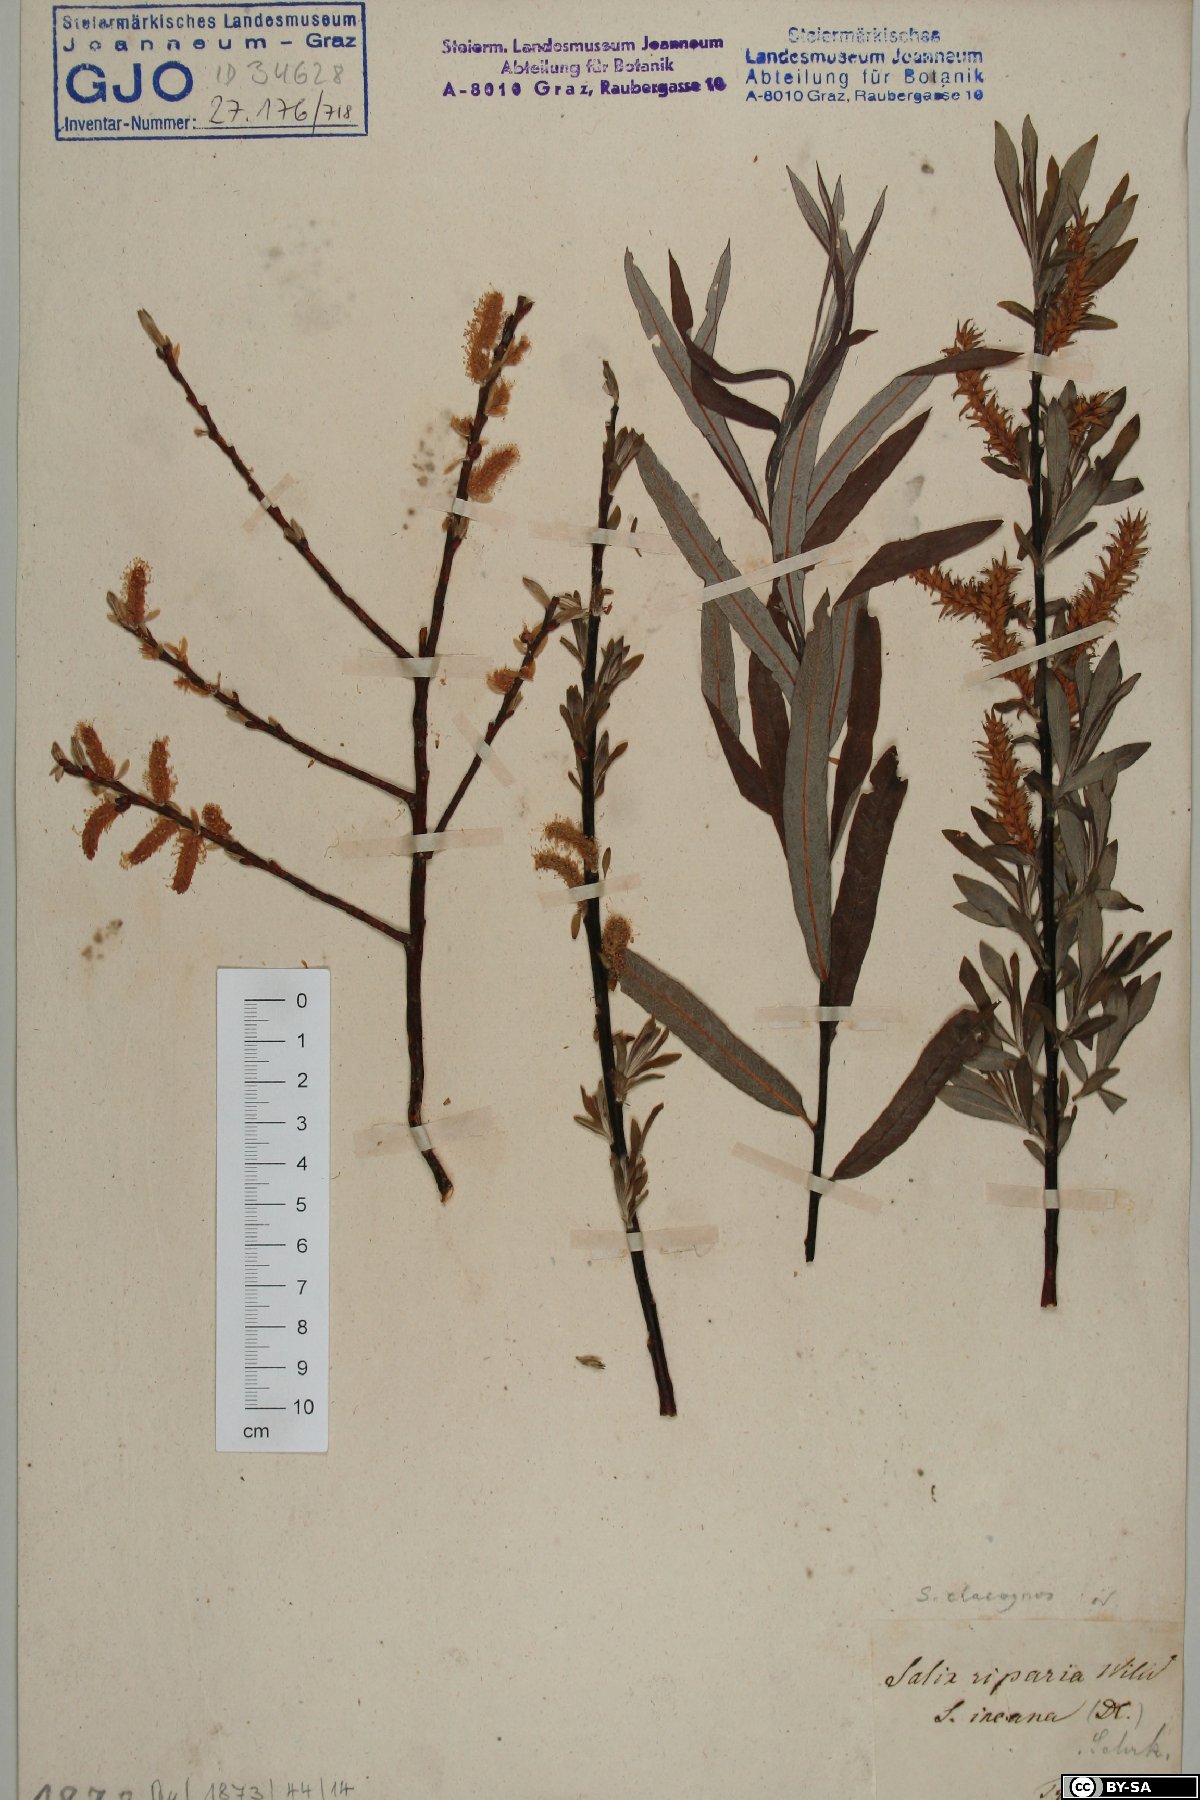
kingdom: Plantae
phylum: Tracheophyta
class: Magnoliopsida
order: Malpighiales
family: Salicaceae
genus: Salix
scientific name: Salix eleagnos
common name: Elaeagnus willow
